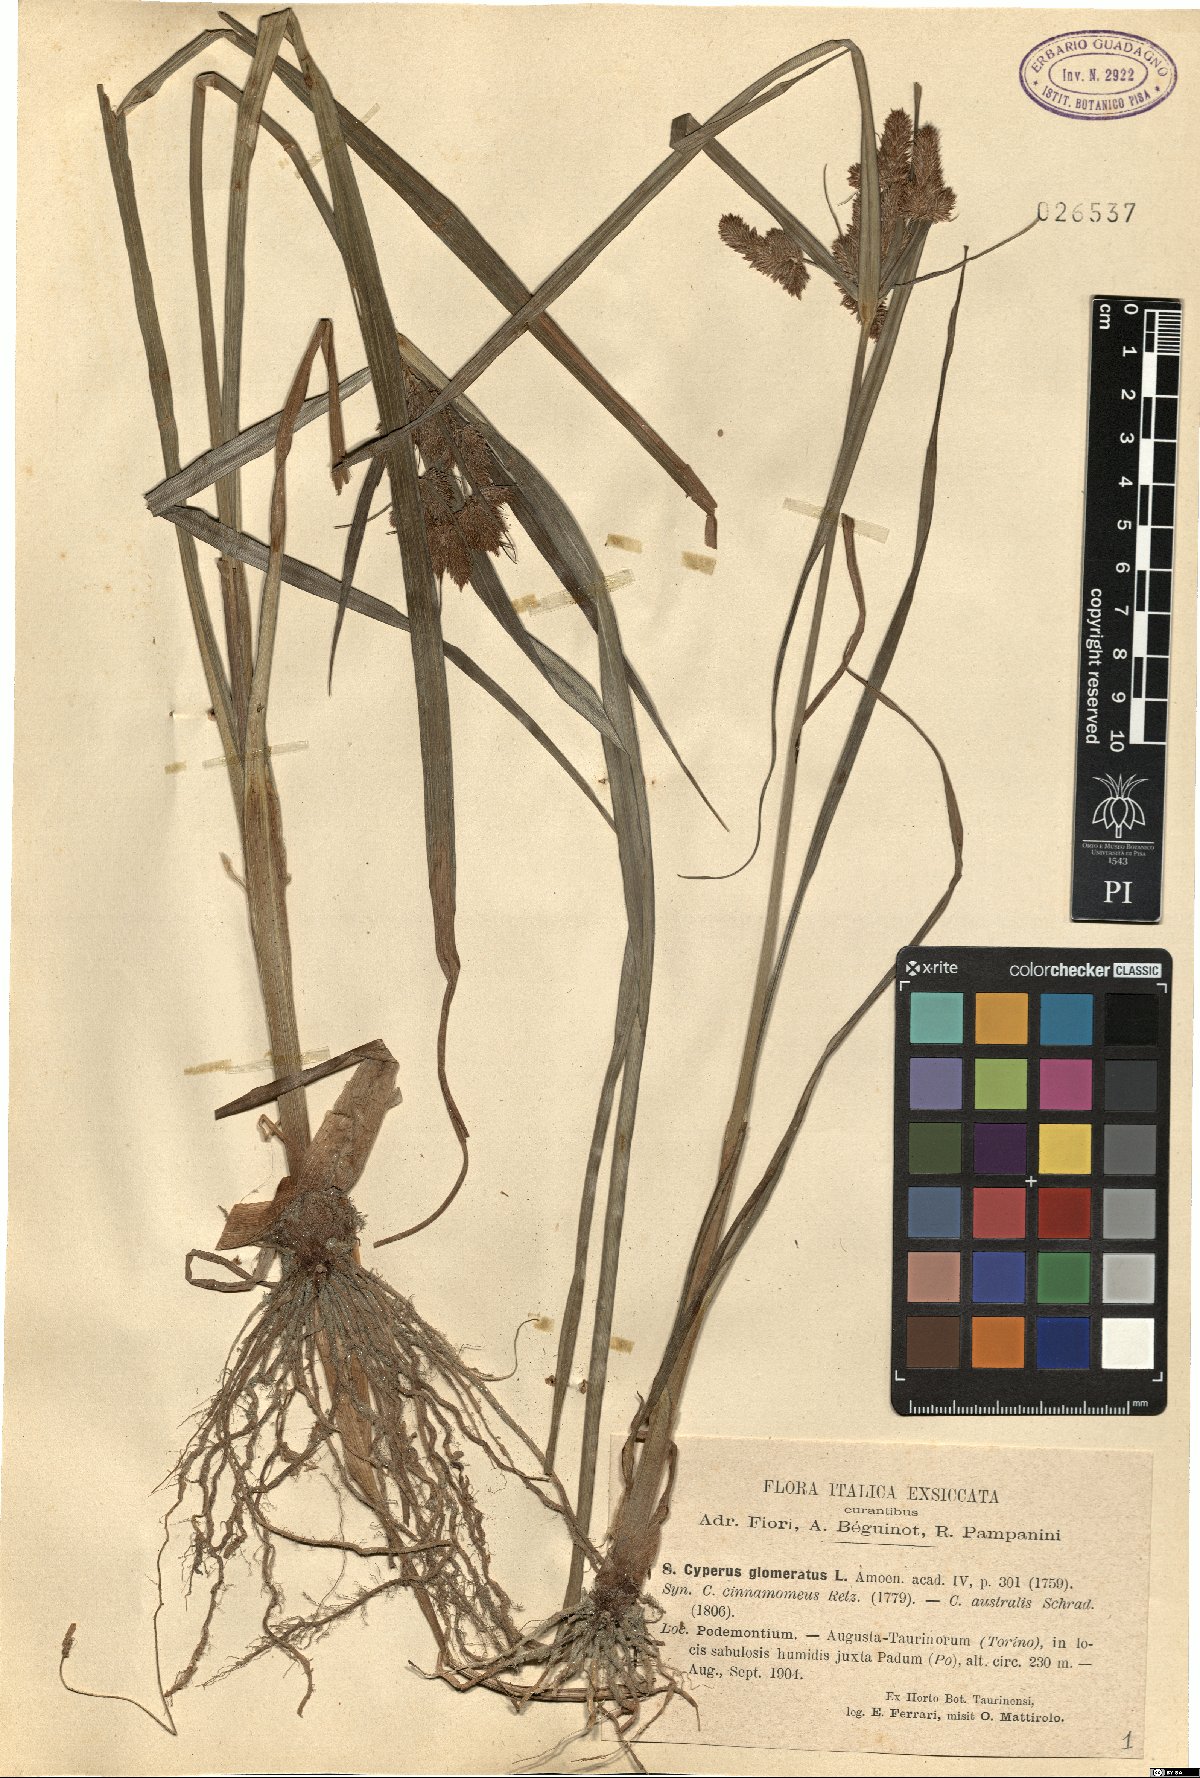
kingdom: Plantae
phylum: Tracheophyta
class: Liliopsida
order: Poales
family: Cyperaceae
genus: Cyperus
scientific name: Cyperus glomeratus
